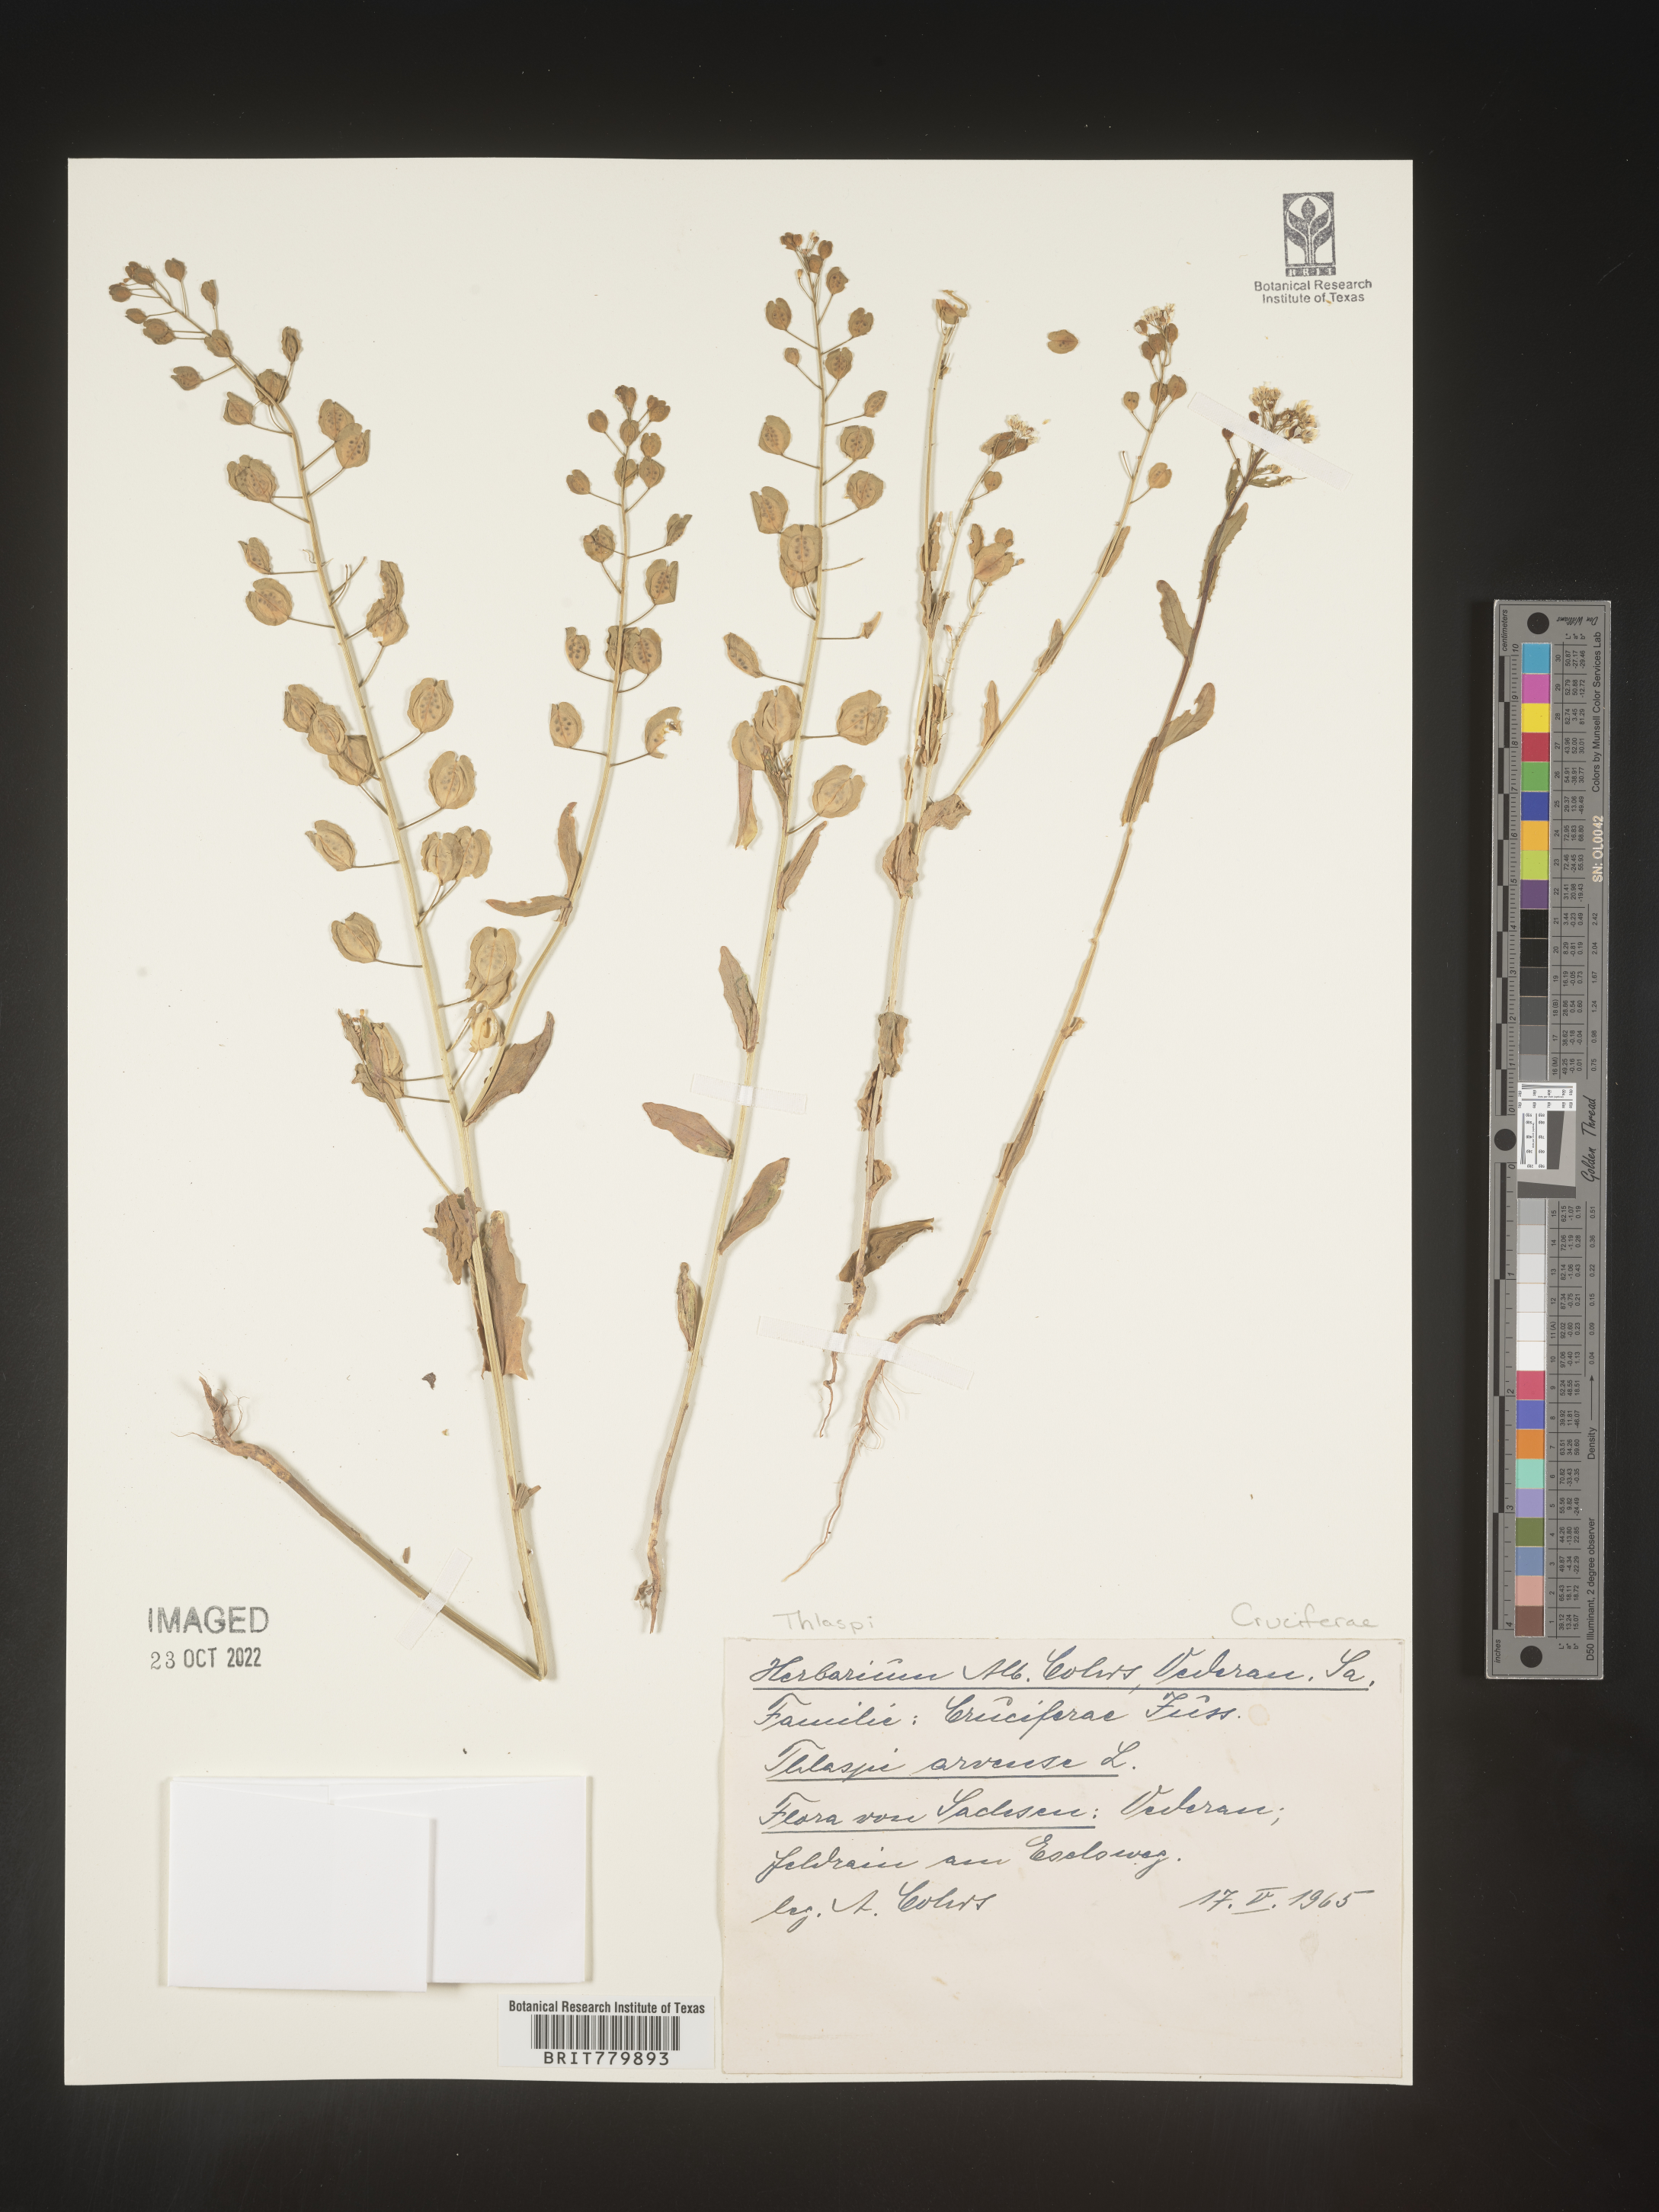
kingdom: Plantae
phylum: Tracheophyta
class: Magnoliopsida
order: Brassicales
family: Brassicaceae
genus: Thlaspi
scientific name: Thlaspi
